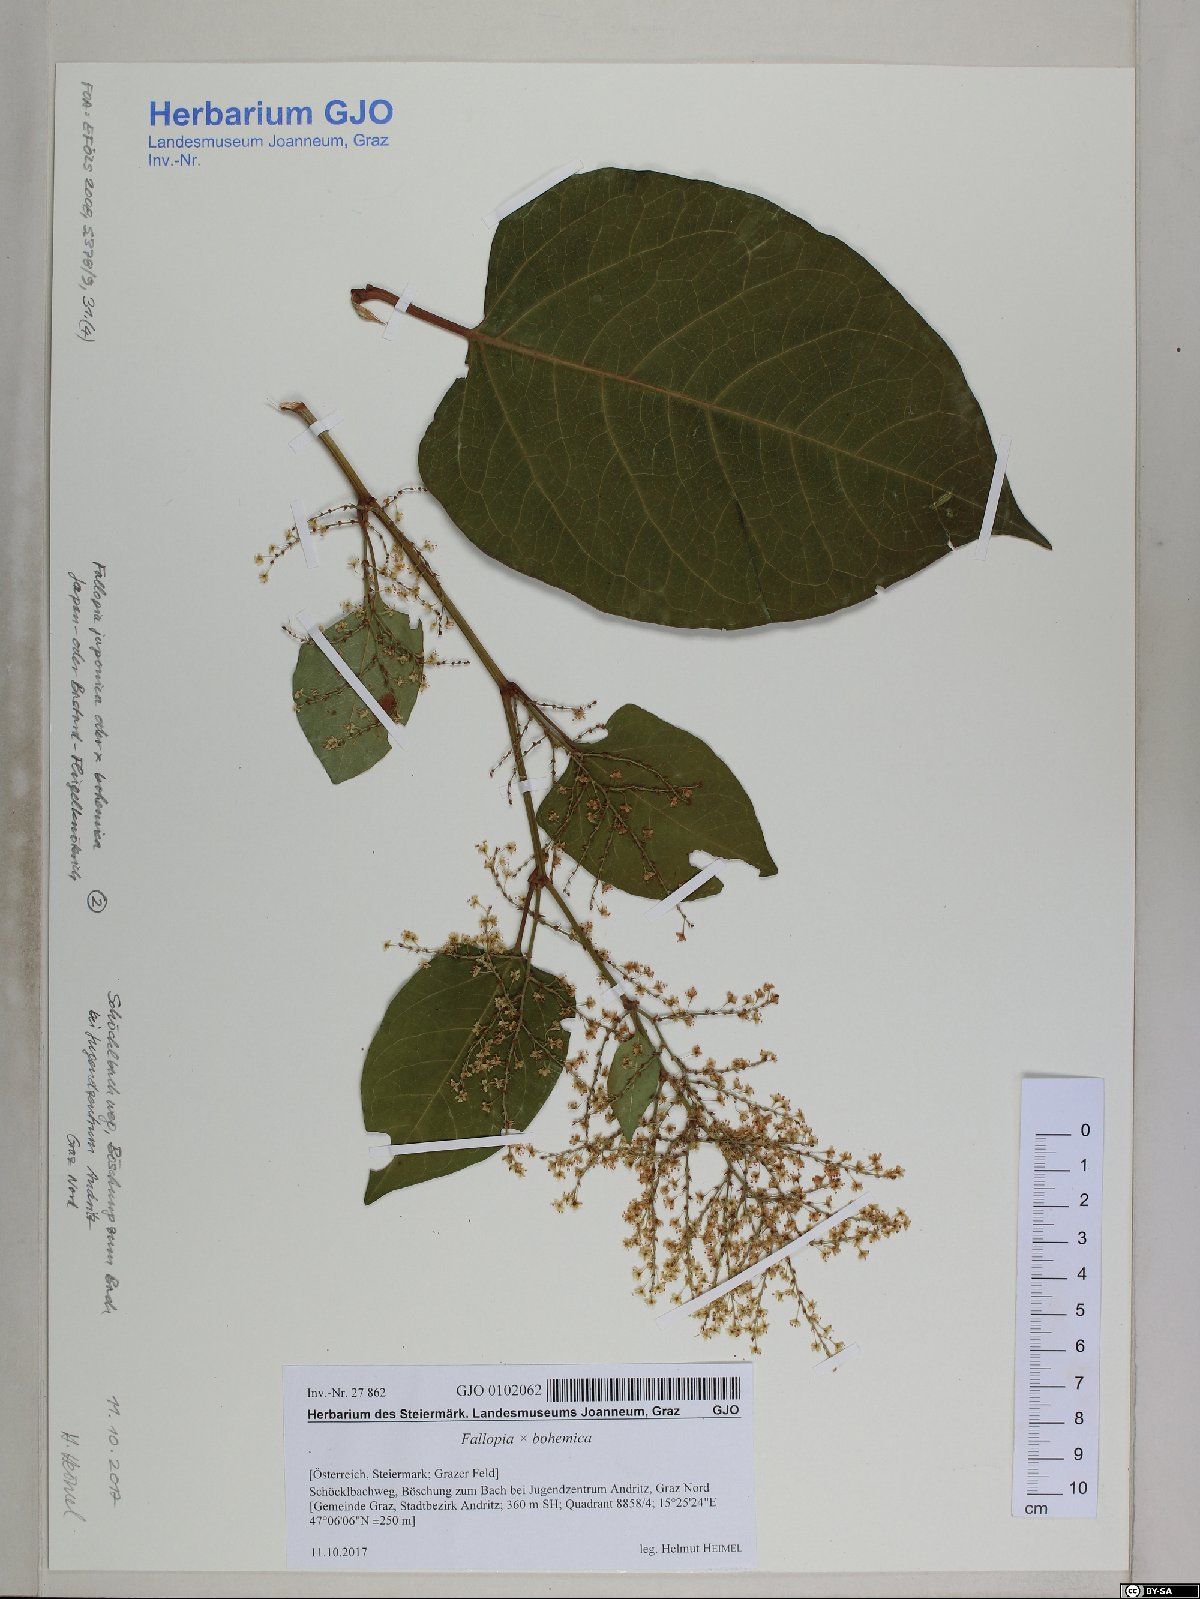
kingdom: Plantae
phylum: Tracheophyta
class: Magnoliopsida
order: Caryophyllales
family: Polygonaceae
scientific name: Polygonaceae
